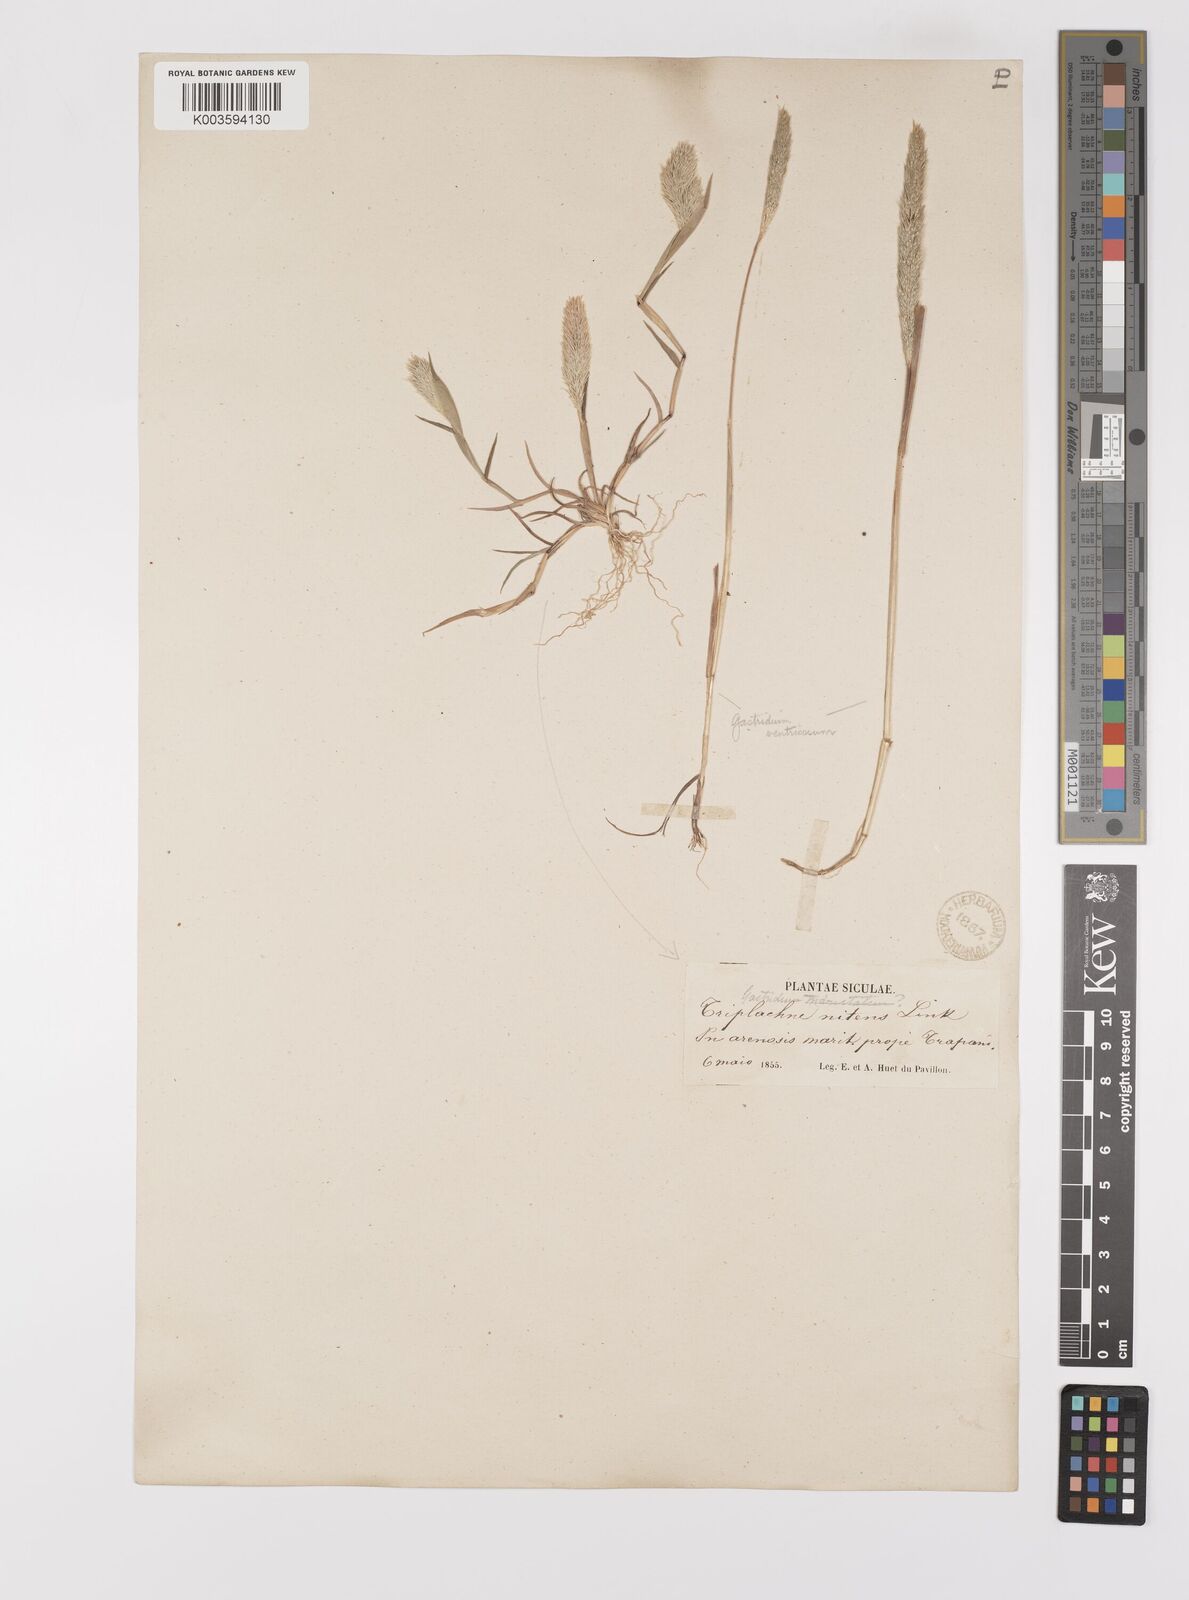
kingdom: Plantae
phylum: Tracheophyta
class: Liliopsida
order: Poales
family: Poaceae
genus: Triplachne
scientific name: Triplachne nitens
